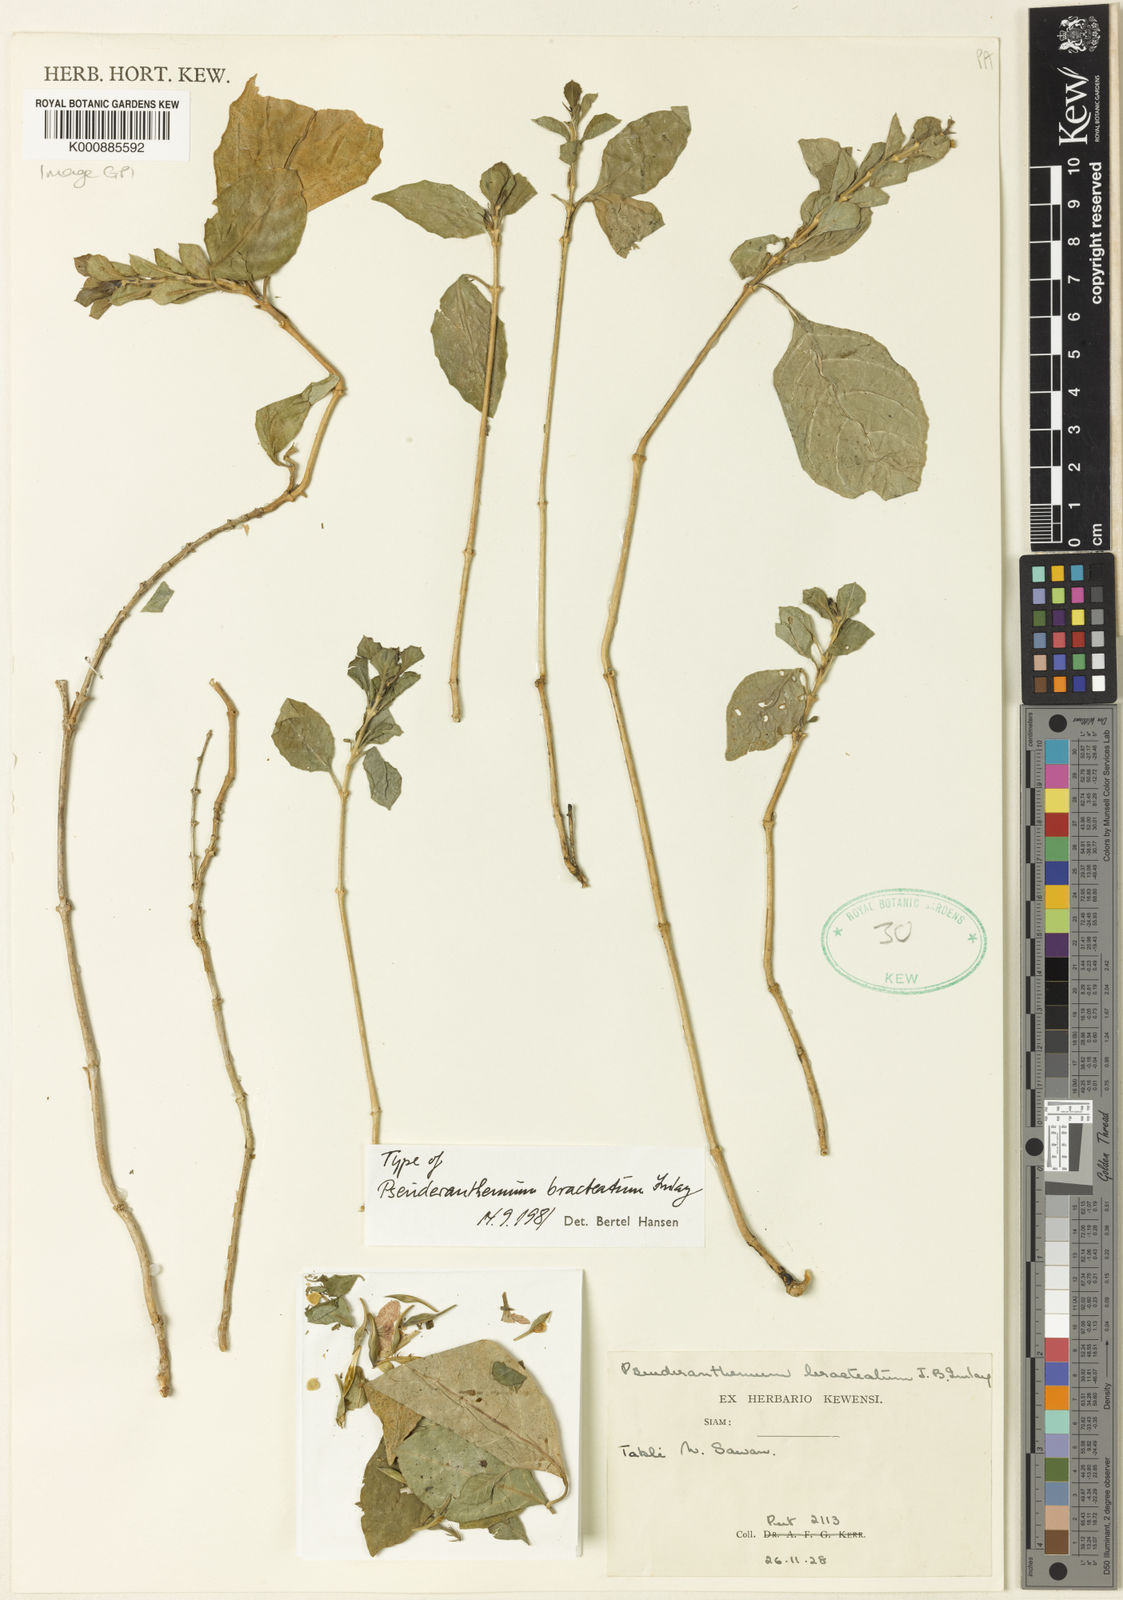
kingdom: Plantae
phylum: Tracheophyta
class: Magnoliopsida
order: Lamiales
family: Acanthaceae
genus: Pseuderanthemum
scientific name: Pseuderanthemum bracteatum
